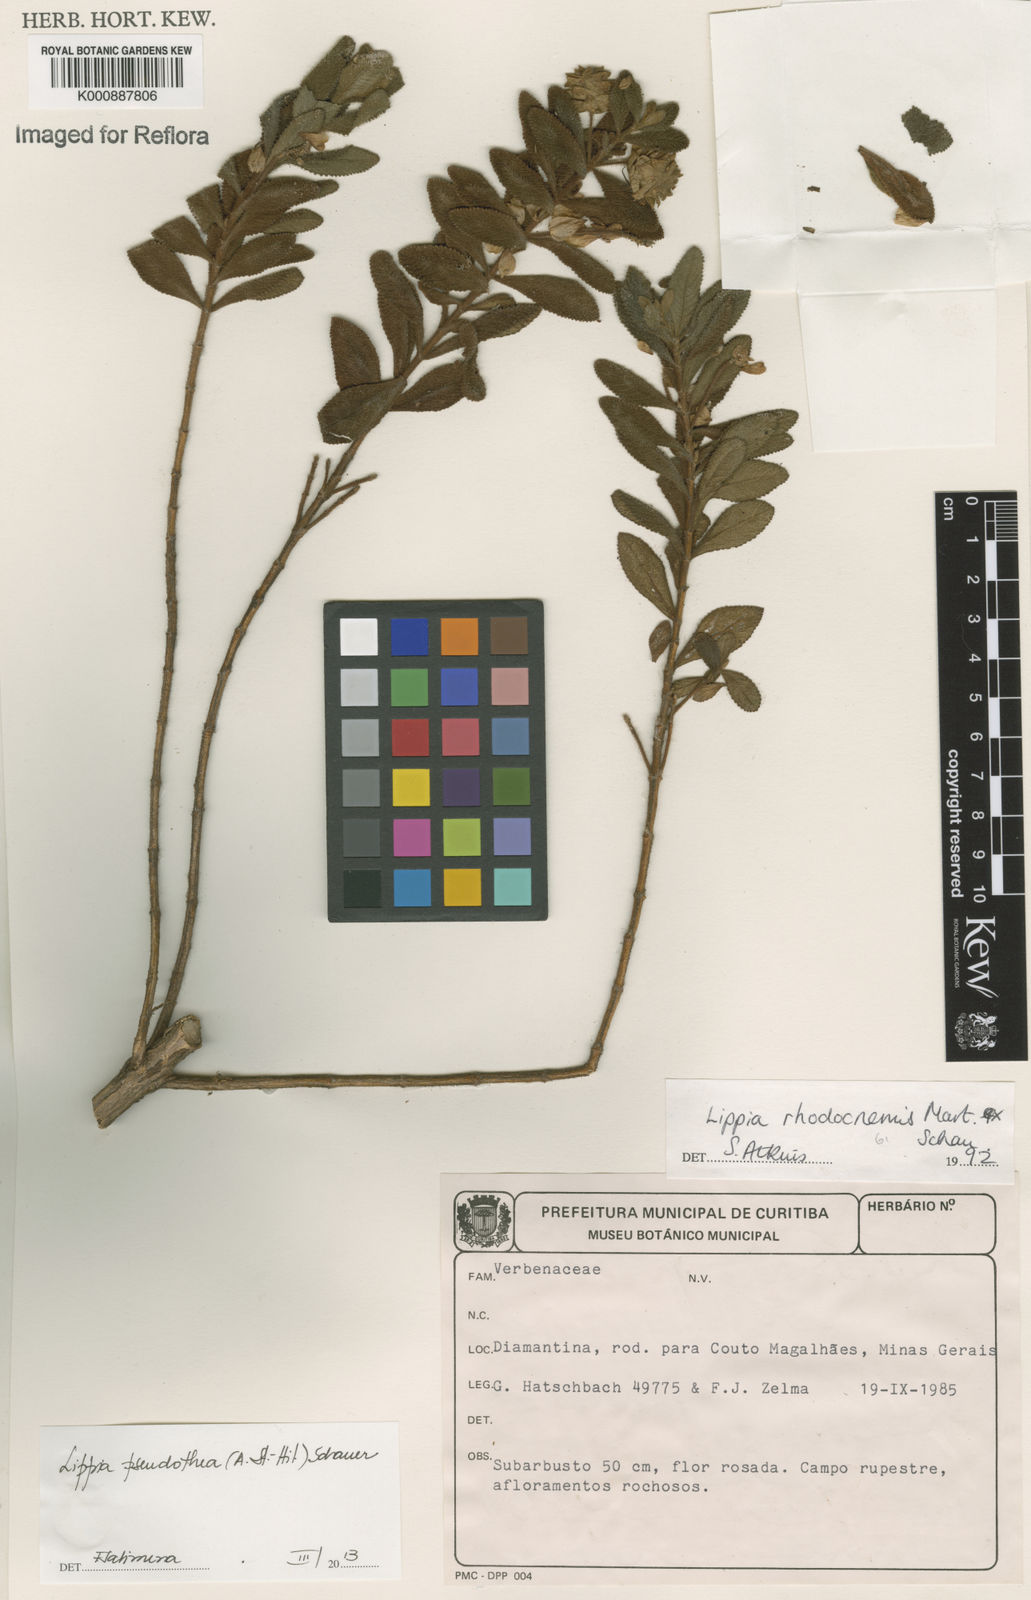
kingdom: Plantae
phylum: Tracheophyta
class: Magnoliopsida
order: Lamiales
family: Verbenaceae
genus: Lippia
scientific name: Lippia
